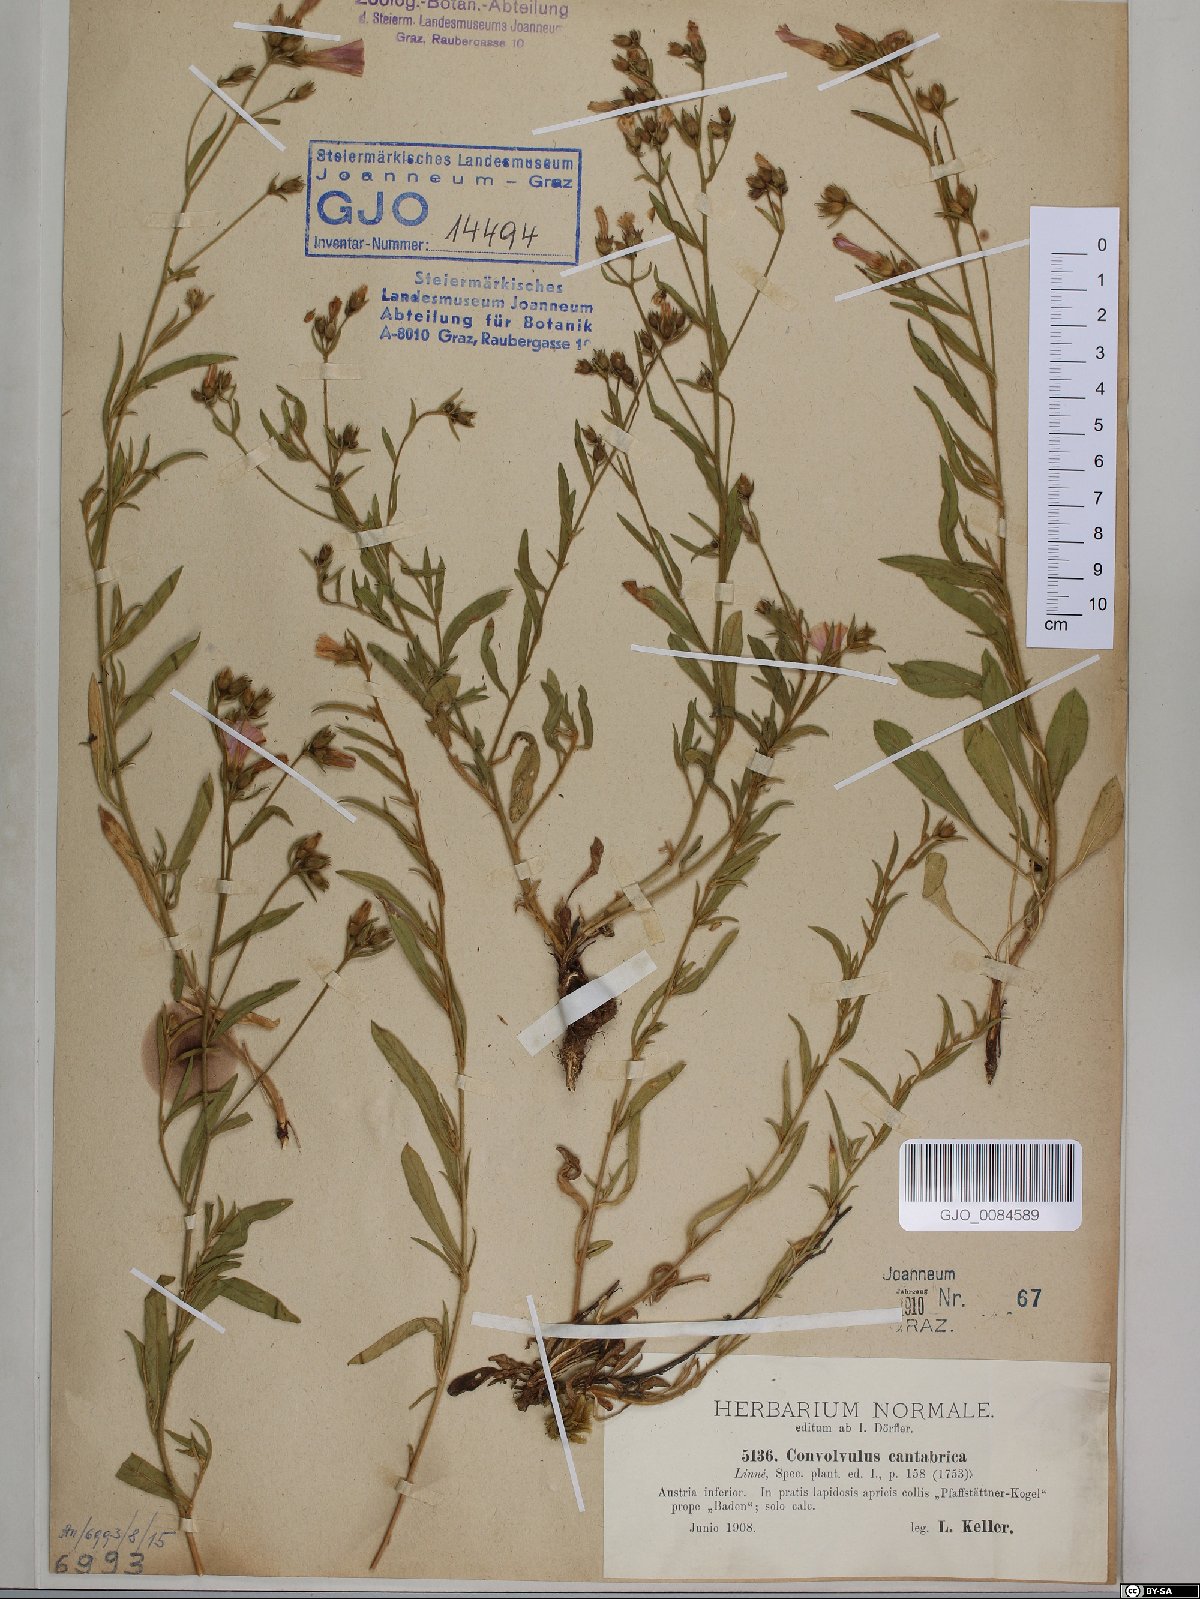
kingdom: Plantae
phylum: Tracheophyta
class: Magnoliopsida
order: Solanales
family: Convolvulaceae
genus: Convolvulus
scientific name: Convolvulus cantabrica
